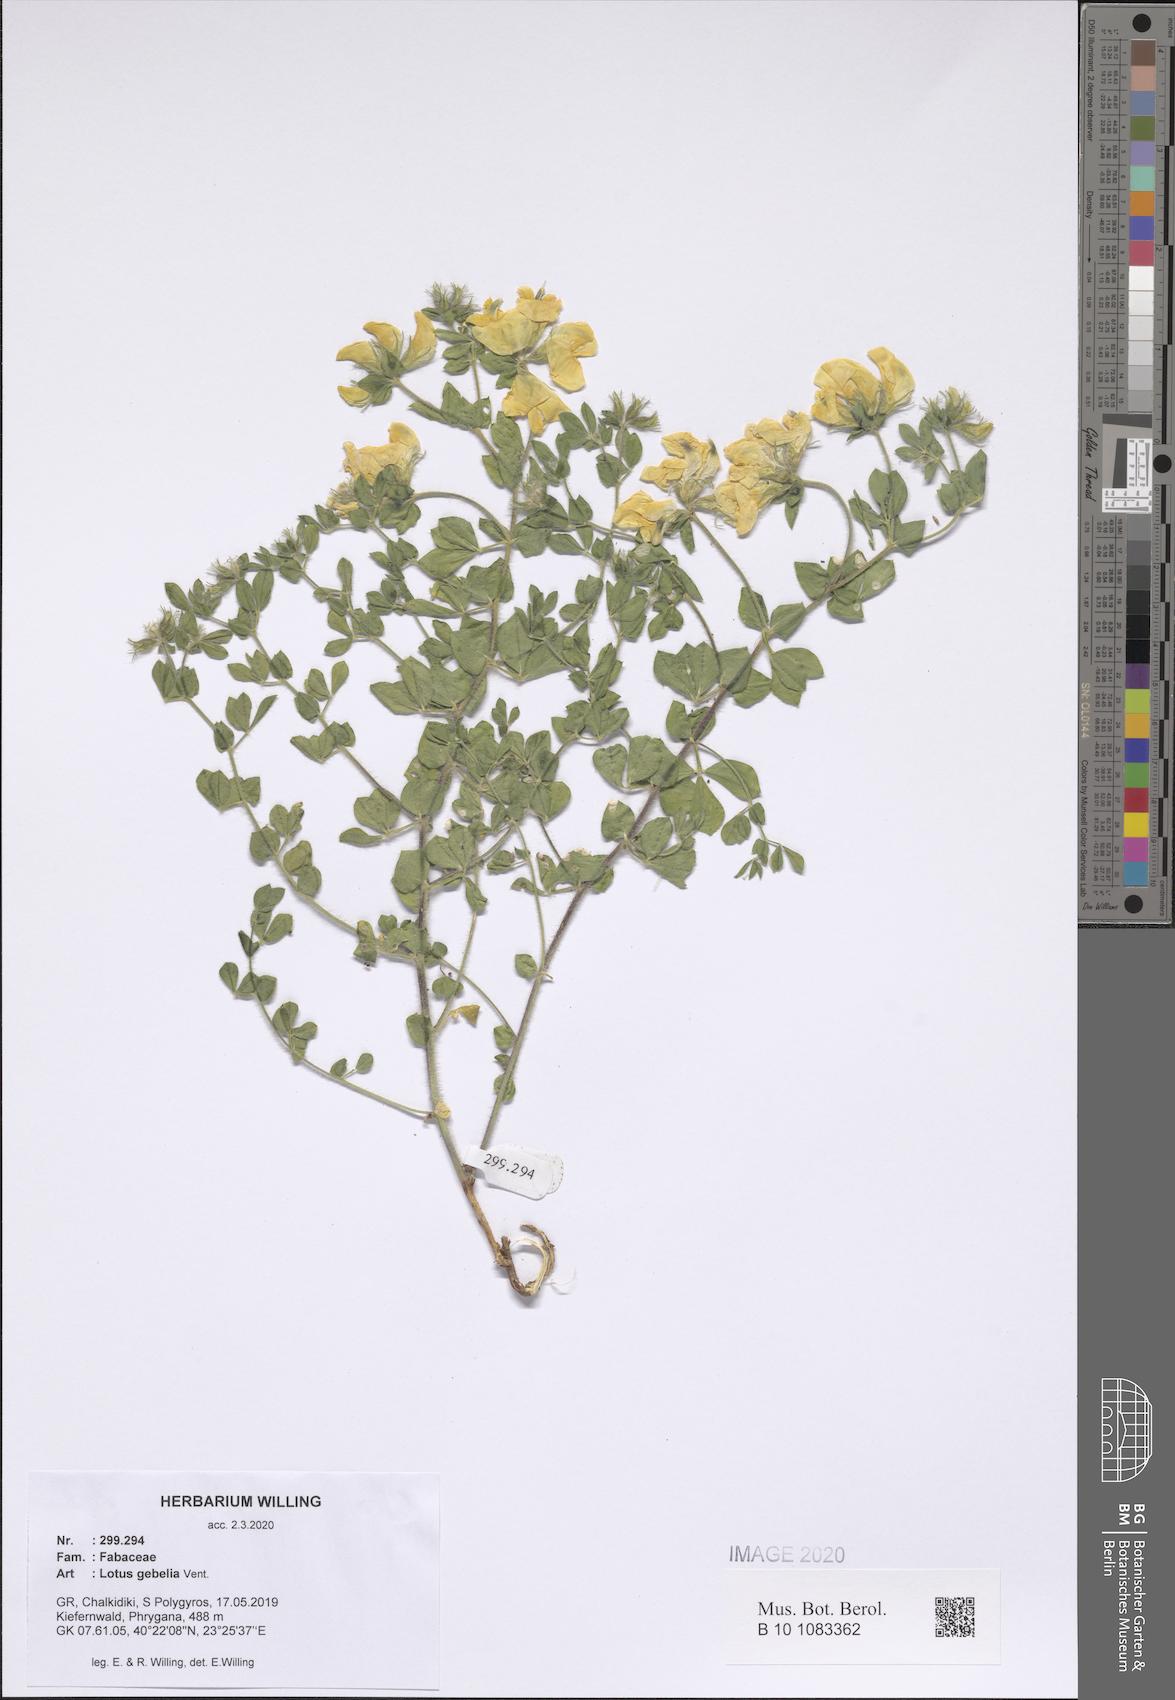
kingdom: Plantae
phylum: Tracheophyta
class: Magnoliopsida
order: Fabales
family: Fabaceae
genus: Lotus
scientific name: Lotus gebelia
